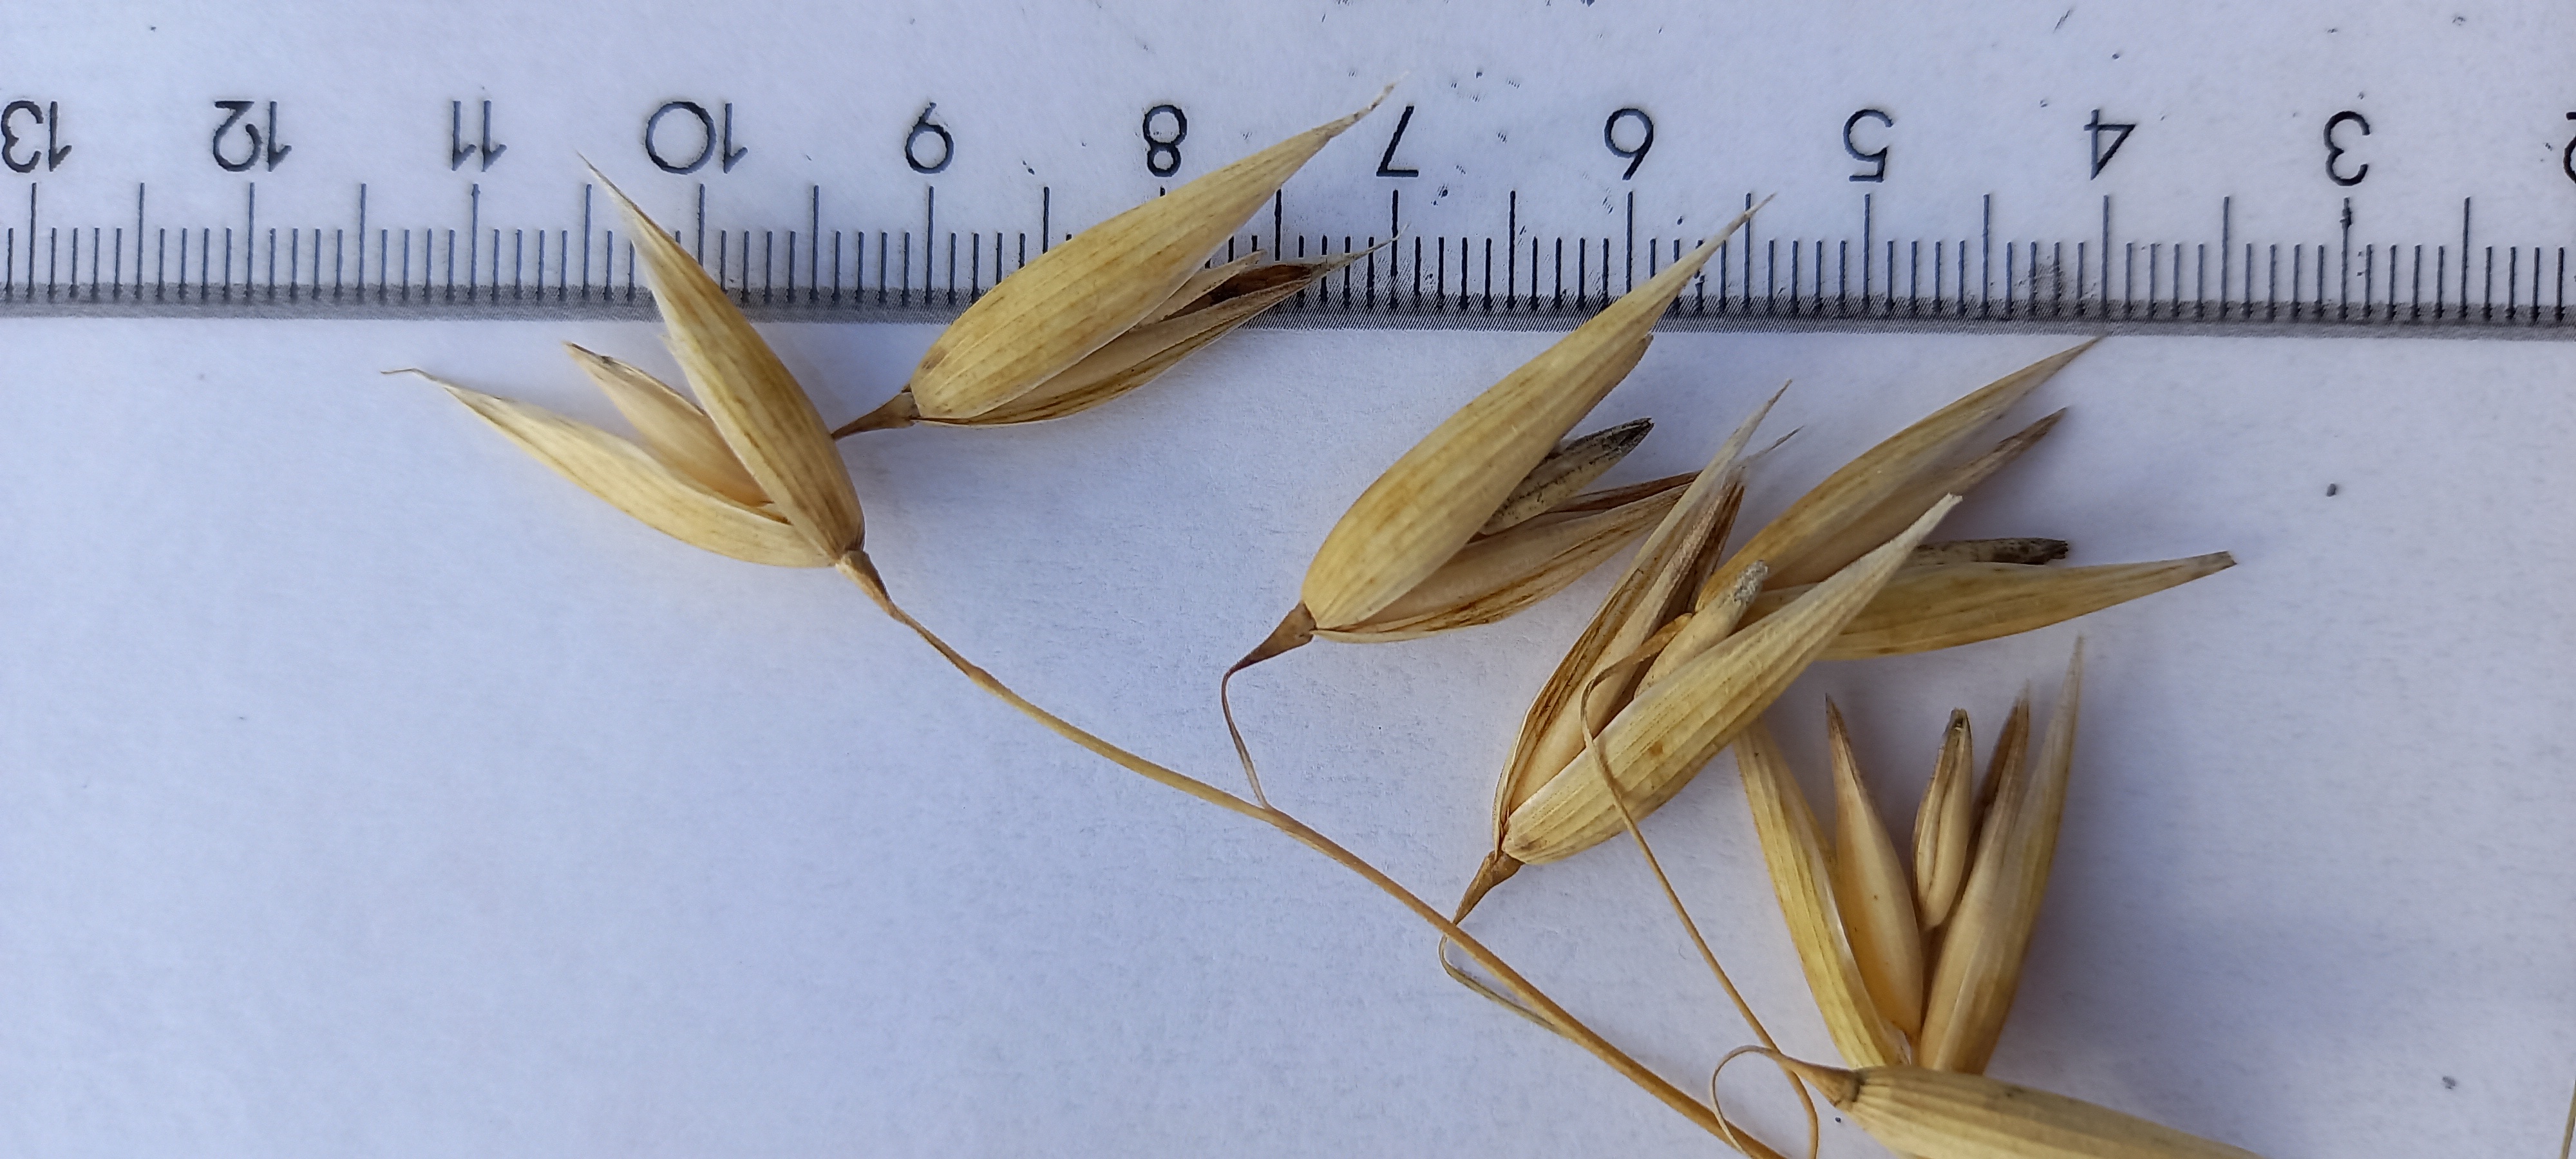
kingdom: Plantae
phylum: Tracheophyta
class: Liliopsida
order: Poales
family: Poaceae
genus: Avena
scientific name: Avena sativa
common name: Oat
